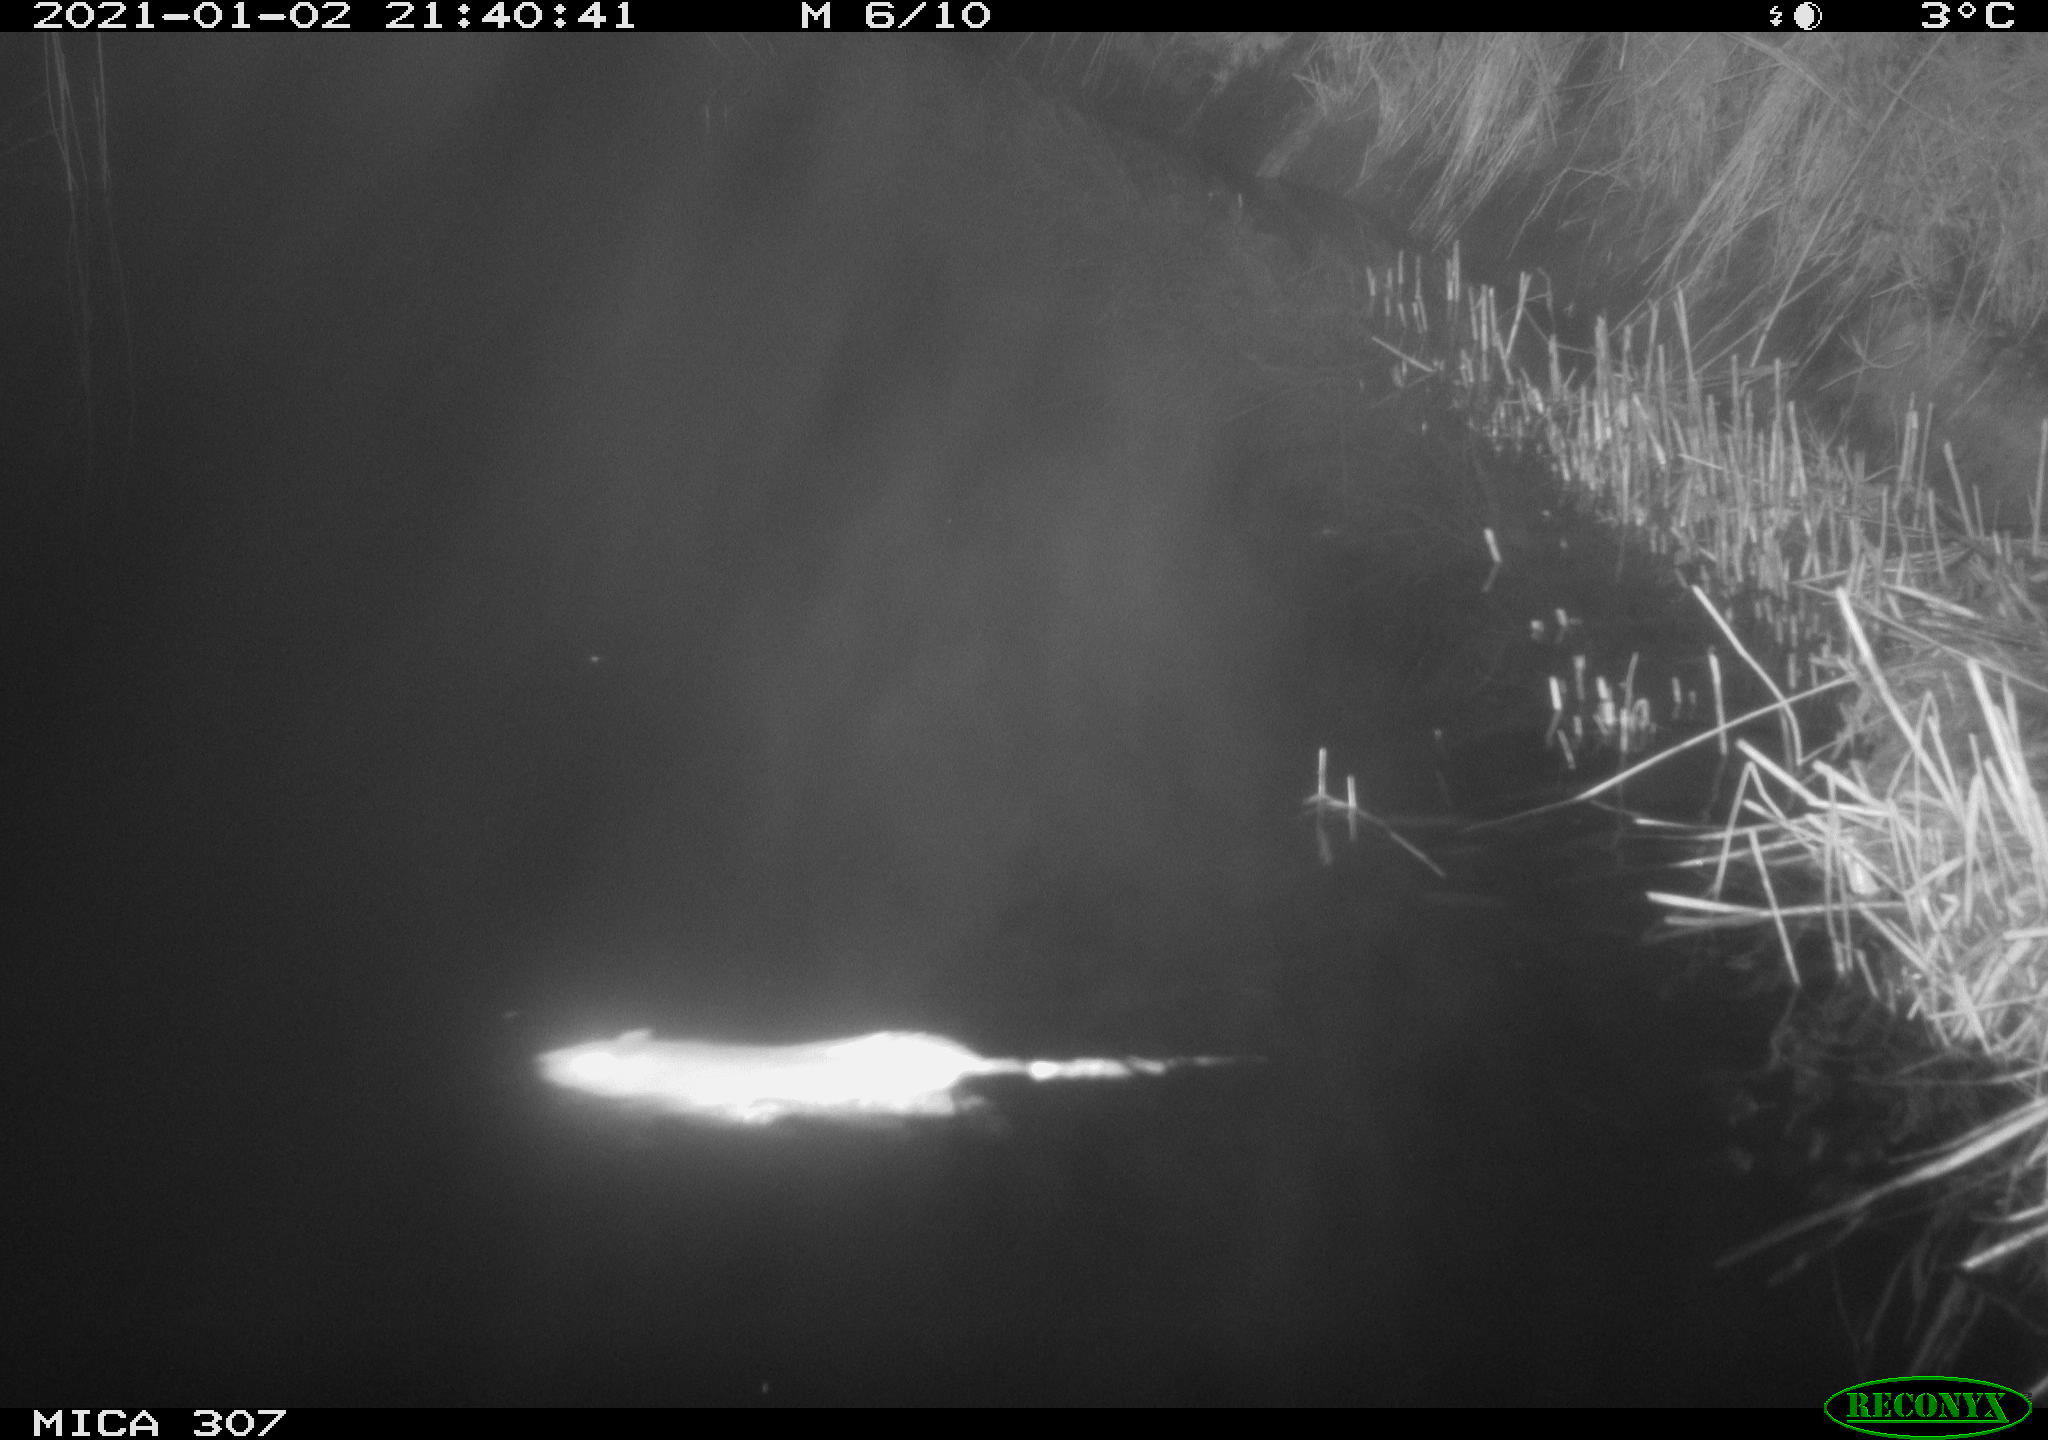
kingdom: Animalia
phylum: Chordata
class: Mammalia
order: Rodentia
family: Muridae
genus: Rattus
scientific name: Rattus norvegicus
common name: Brown rat
